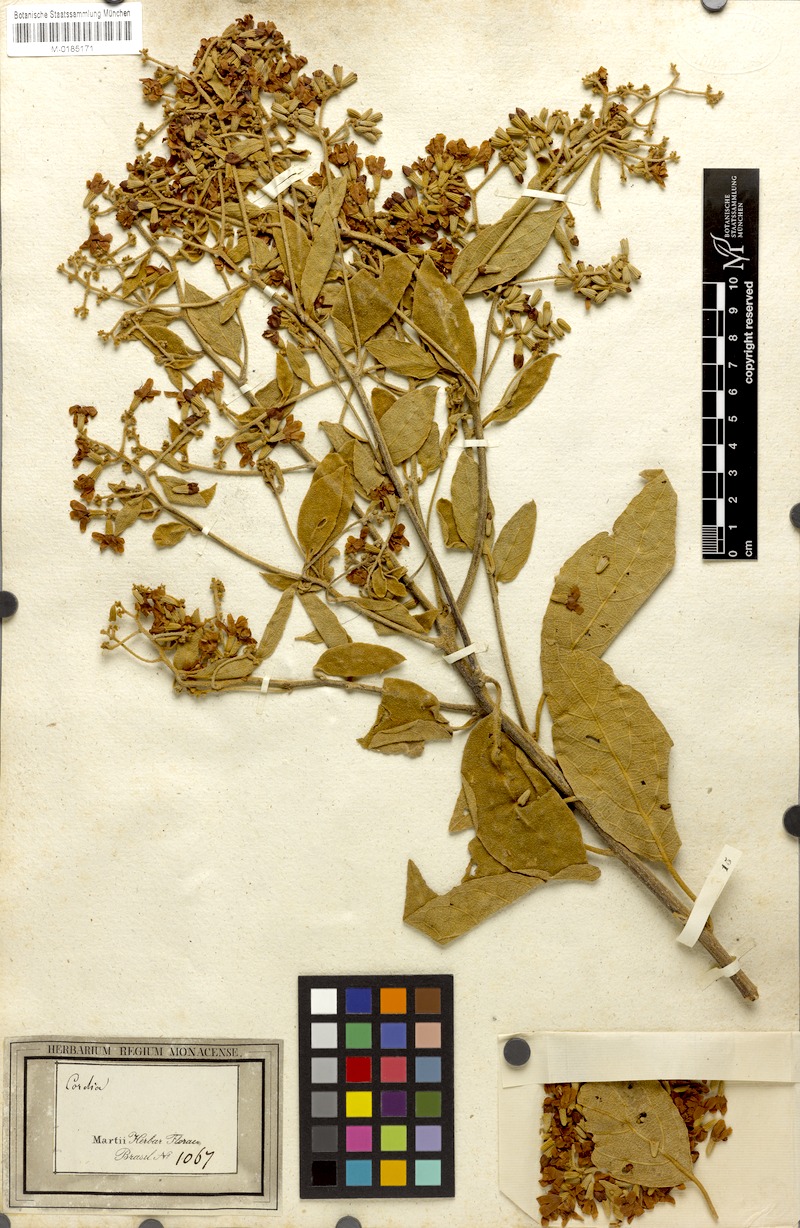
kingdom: Plantae
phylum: Tracheophyta
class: Magnoliopsida
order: Boraginales
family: Cordiaceae
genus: Cordia
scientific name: Cordia trichotoma
